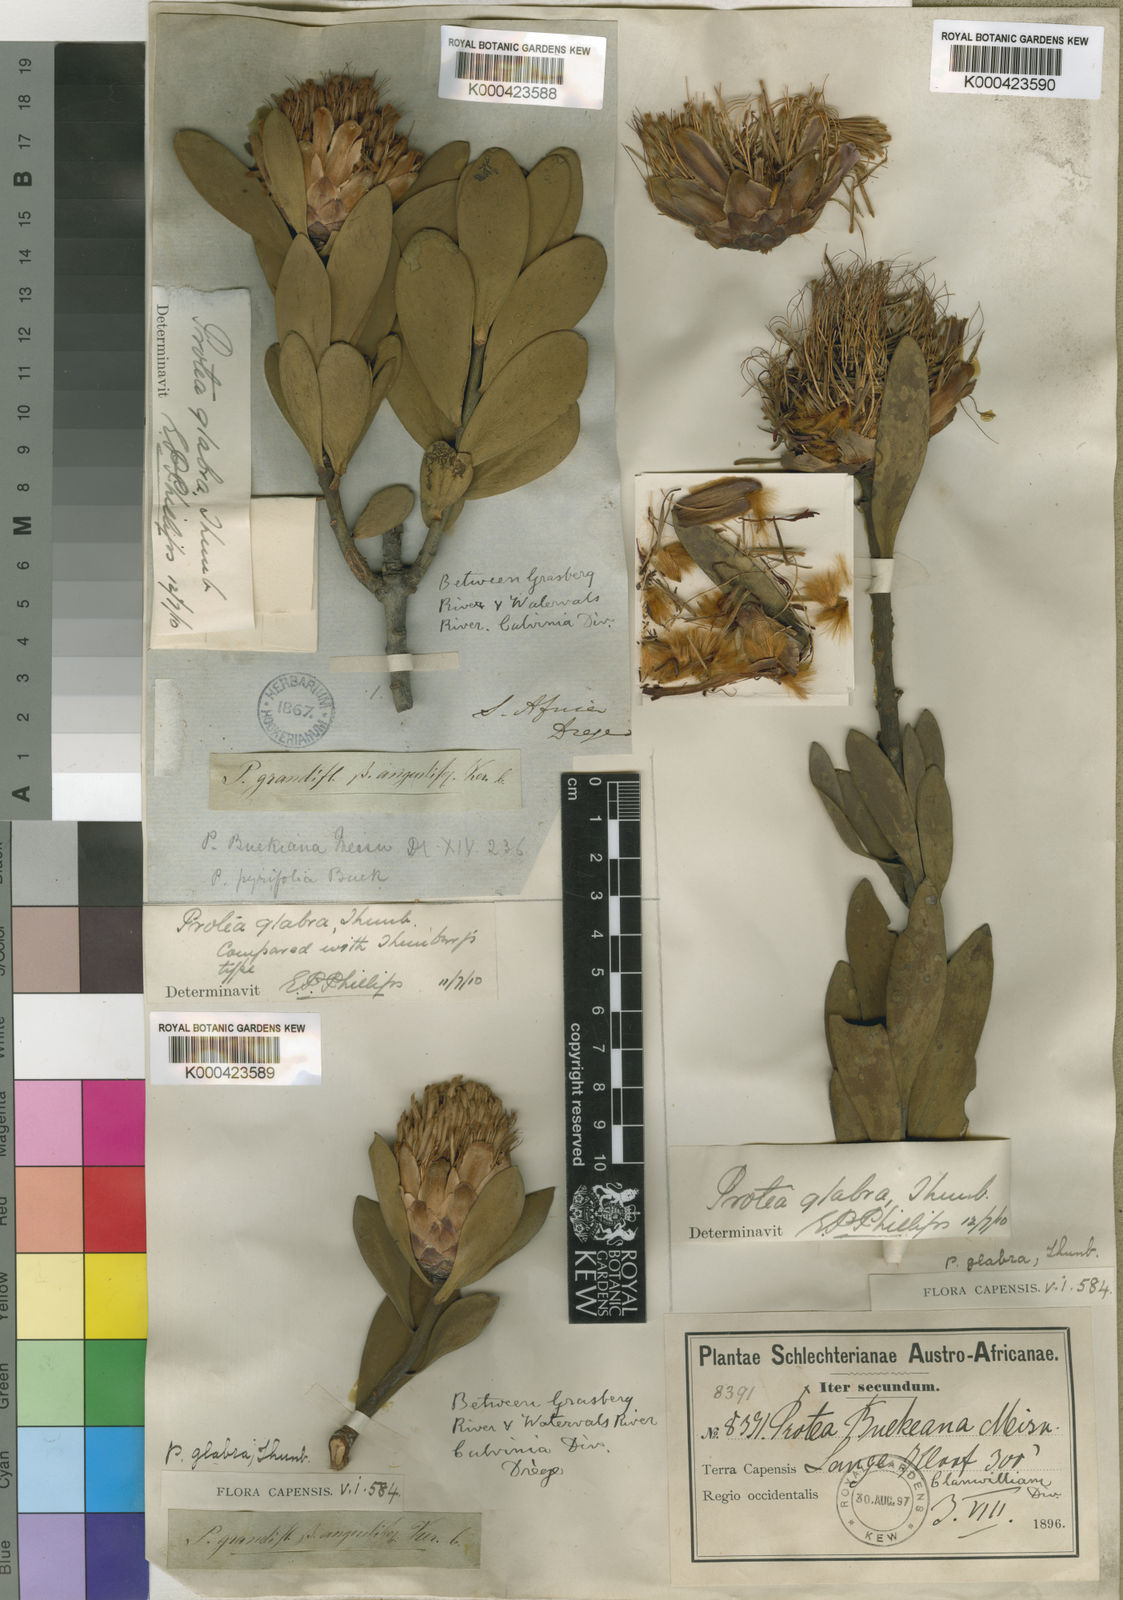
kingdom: Plantae
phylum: Tracheophyta
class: Magnoliopsida
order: Proteales
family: Proteaceae
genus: Protea
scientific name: Protea glabra
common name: Chestnut sugarbush
